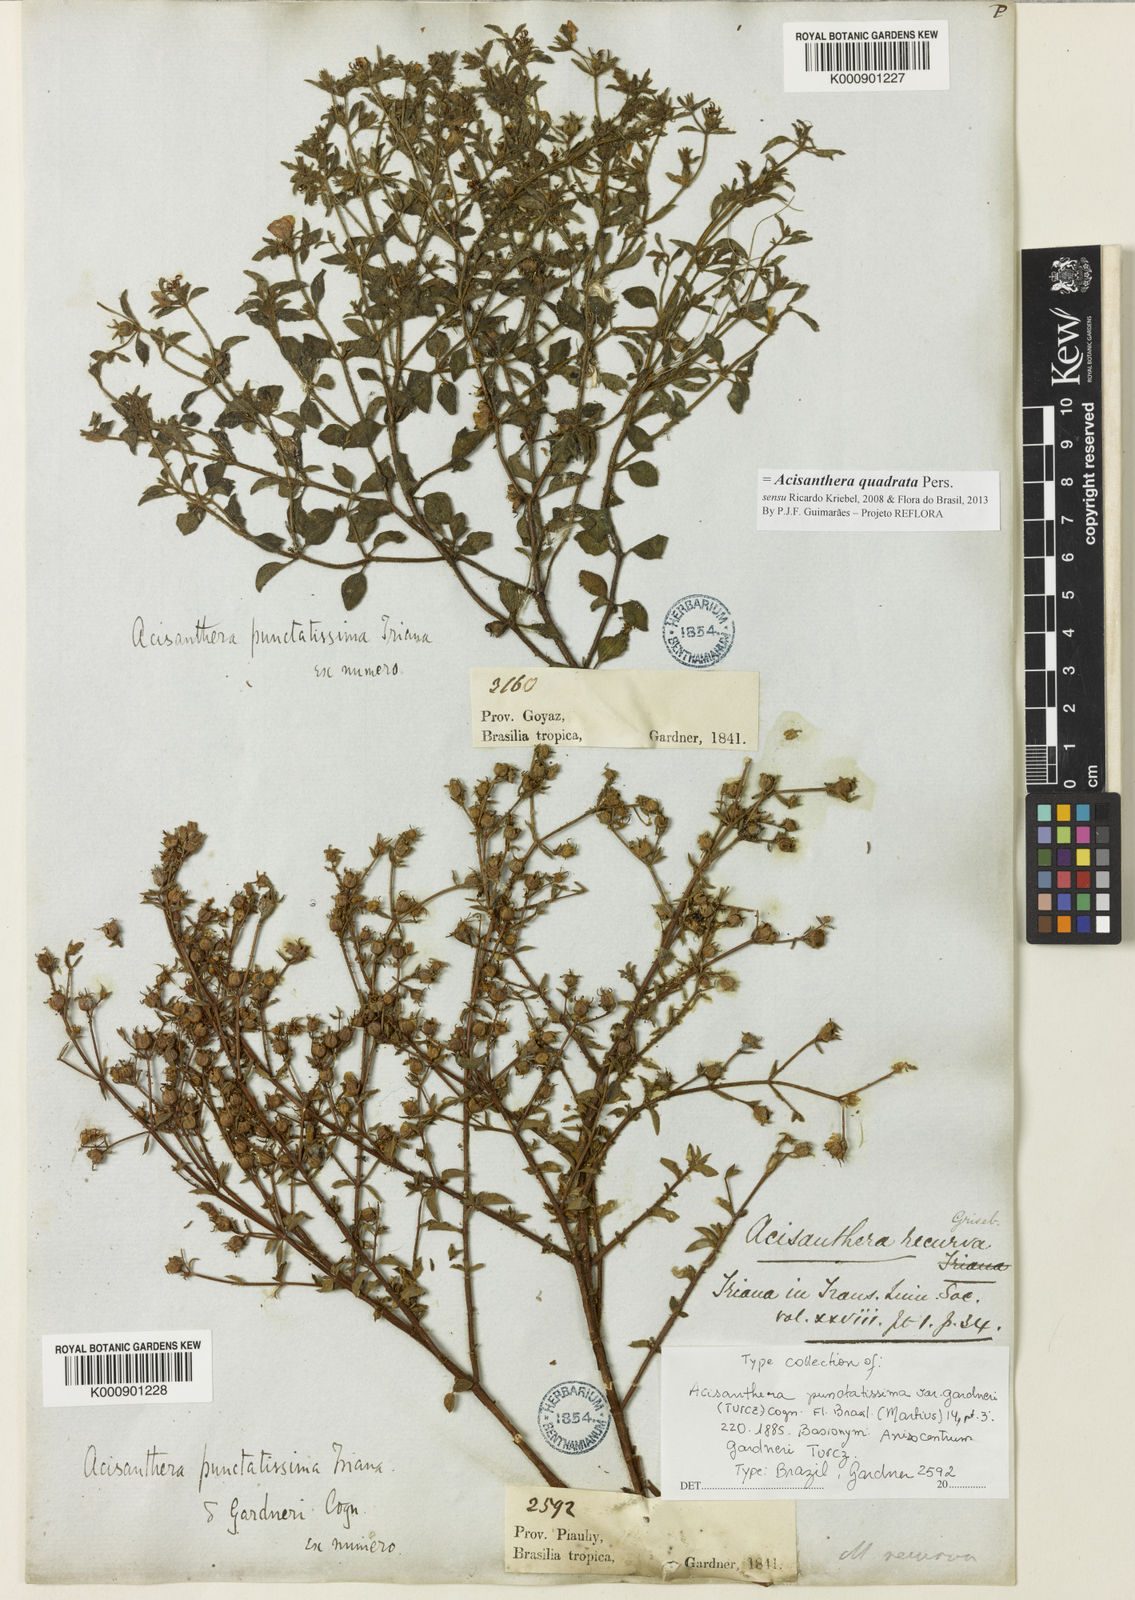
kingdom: Plantae
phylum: Tracheophyta
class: Magnoliopsida
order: Myrtales
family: Melastomataceae
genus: Acisanthera
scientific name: Acisanthera quadrata
